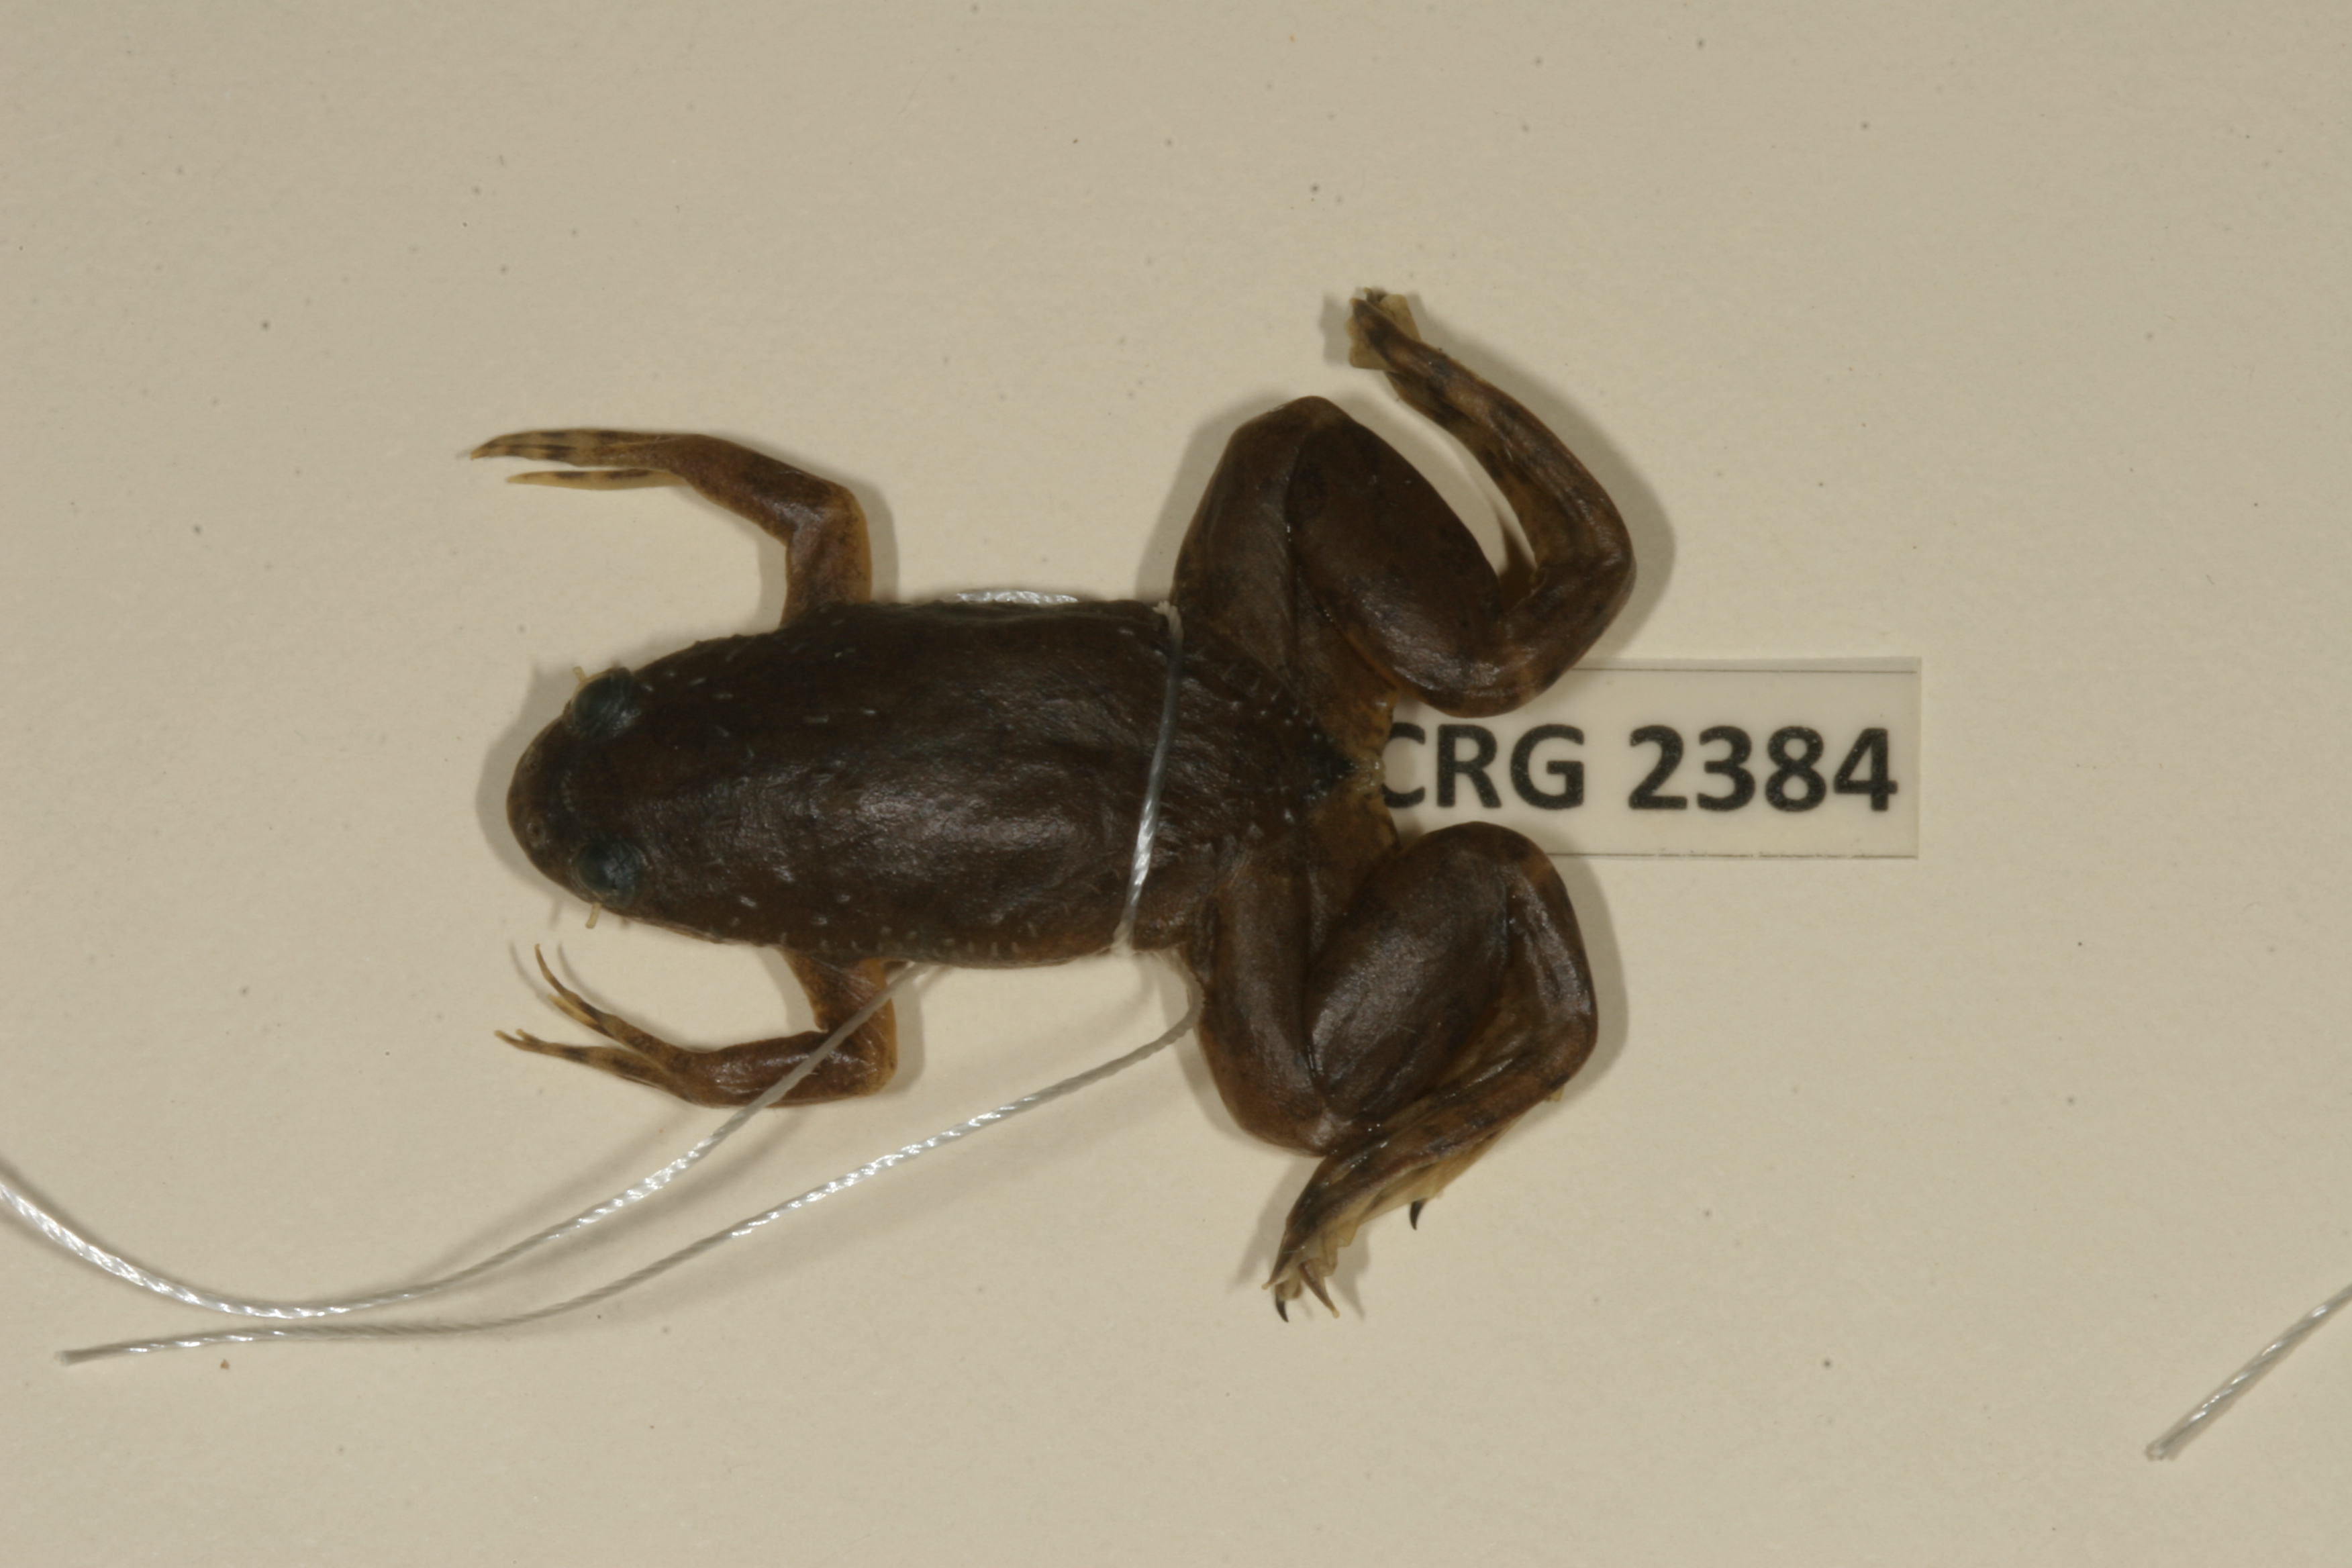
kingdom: Animalia
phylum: Chordata
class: Amphibia
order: Anura
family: Pipidae
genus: Xenopus
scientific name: Xenopus muelleri
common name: Muller's clawed frog
